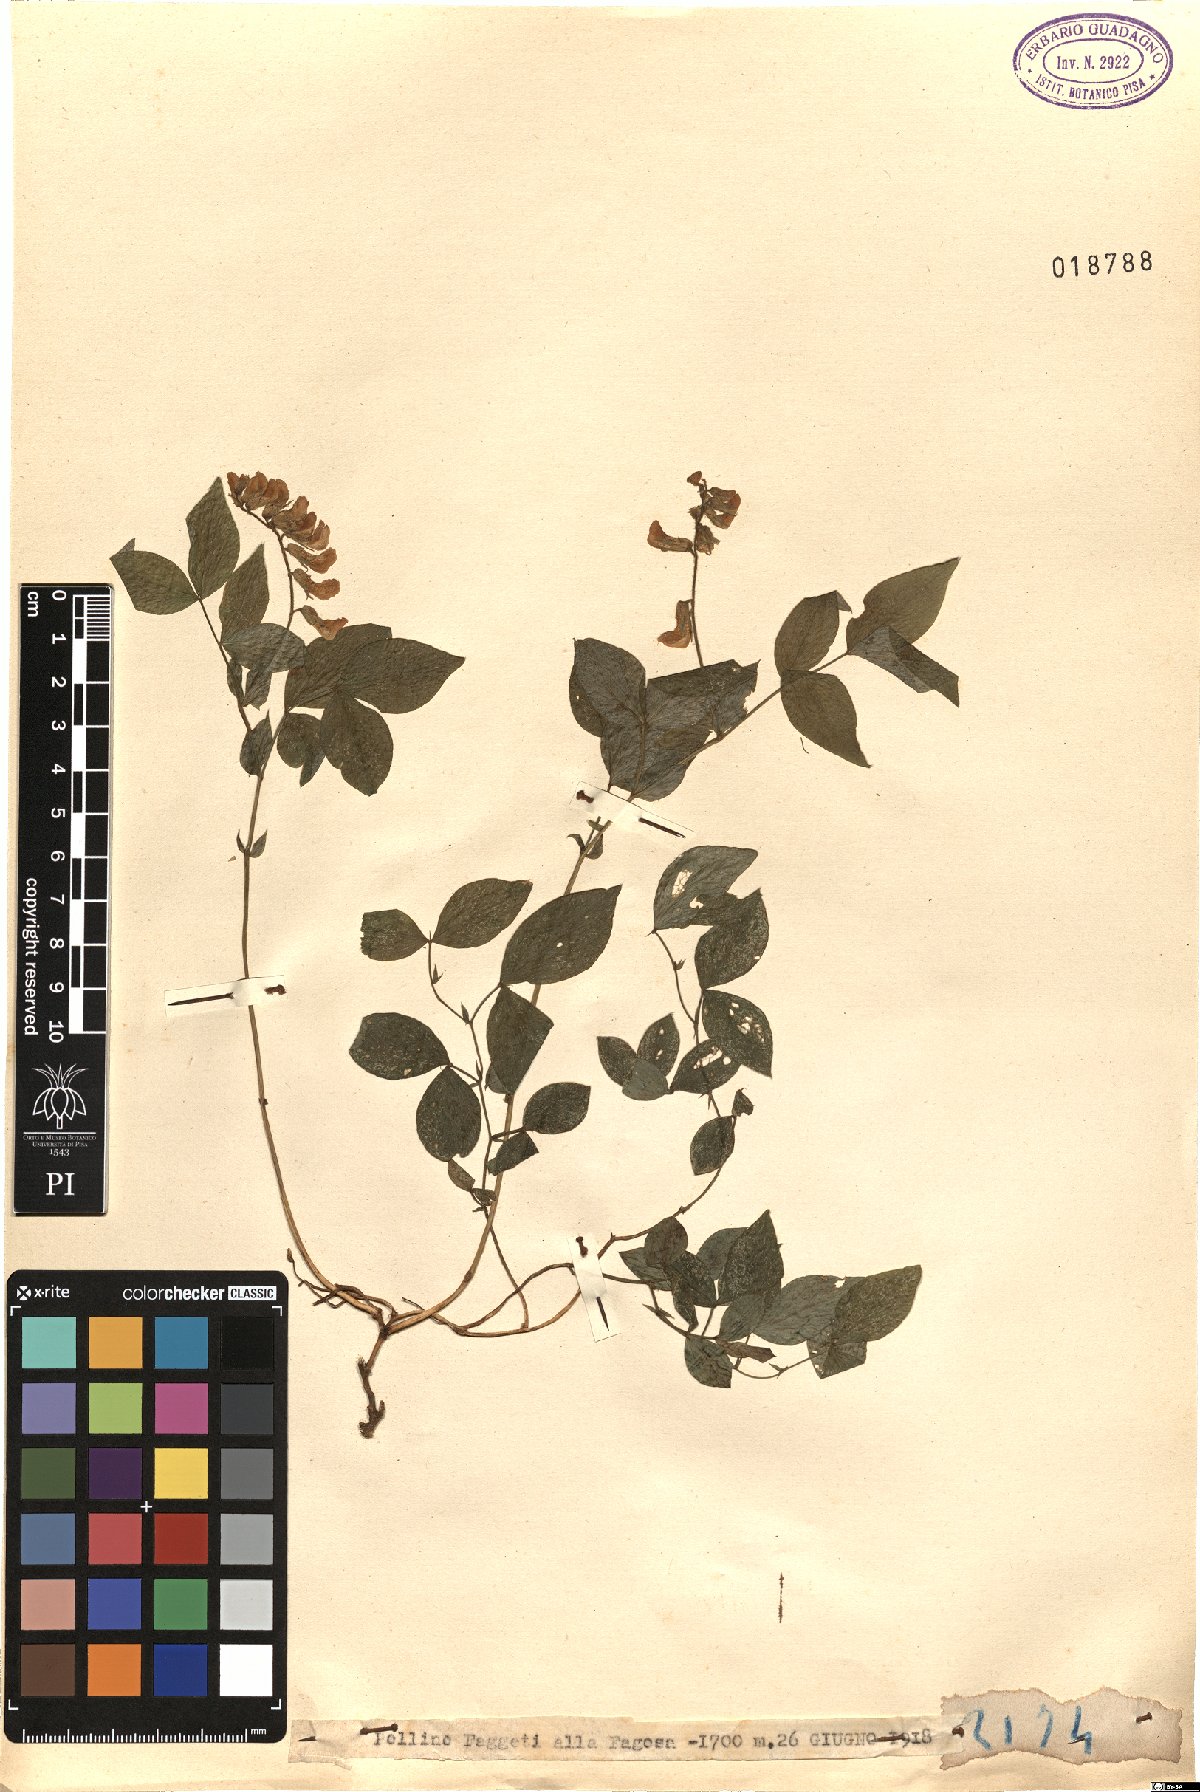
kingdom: Plantae
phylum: Tracheophyta
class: Magnoliopsida
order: Fabales
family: Fabaceae
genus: Lathyrus
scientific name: Lathyrus
